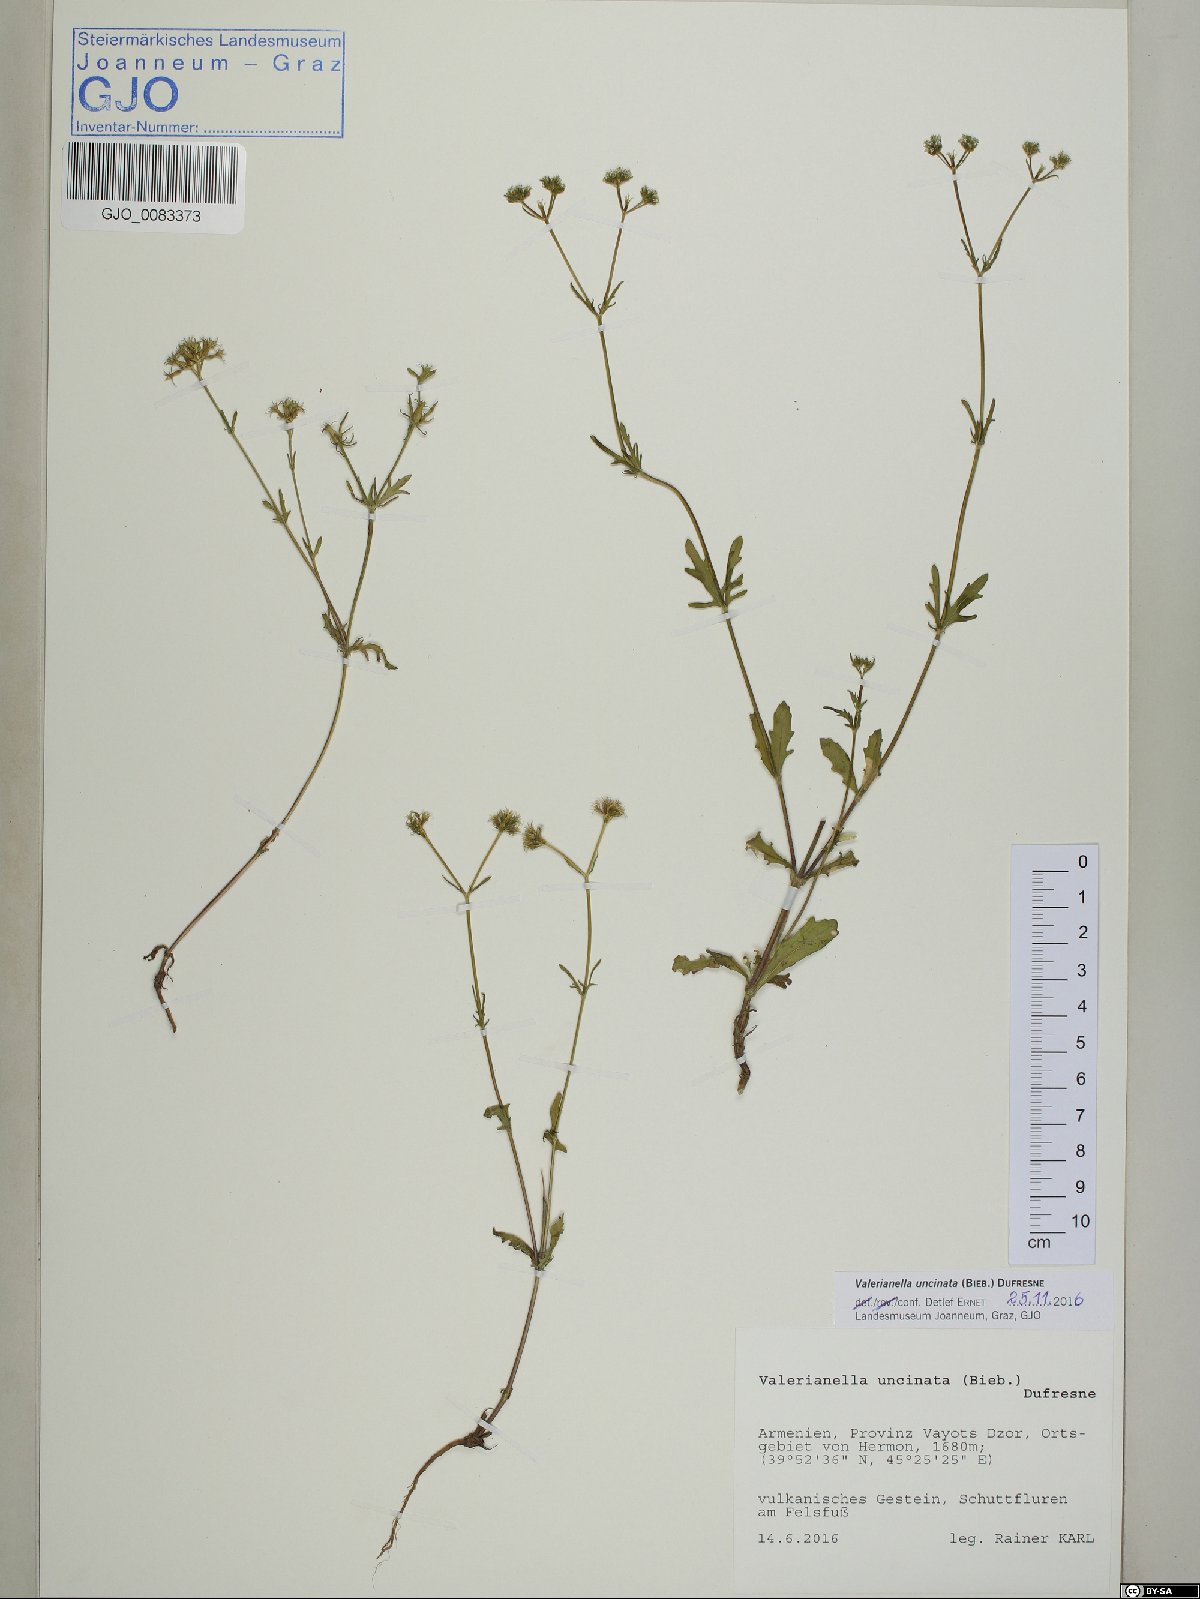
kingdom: Plantae
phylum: Tracheophyta
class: Magnoliopsida
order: Dipsacales
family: Caprifoliaceae
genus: Valerianella
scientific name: Valerianella uncinata
